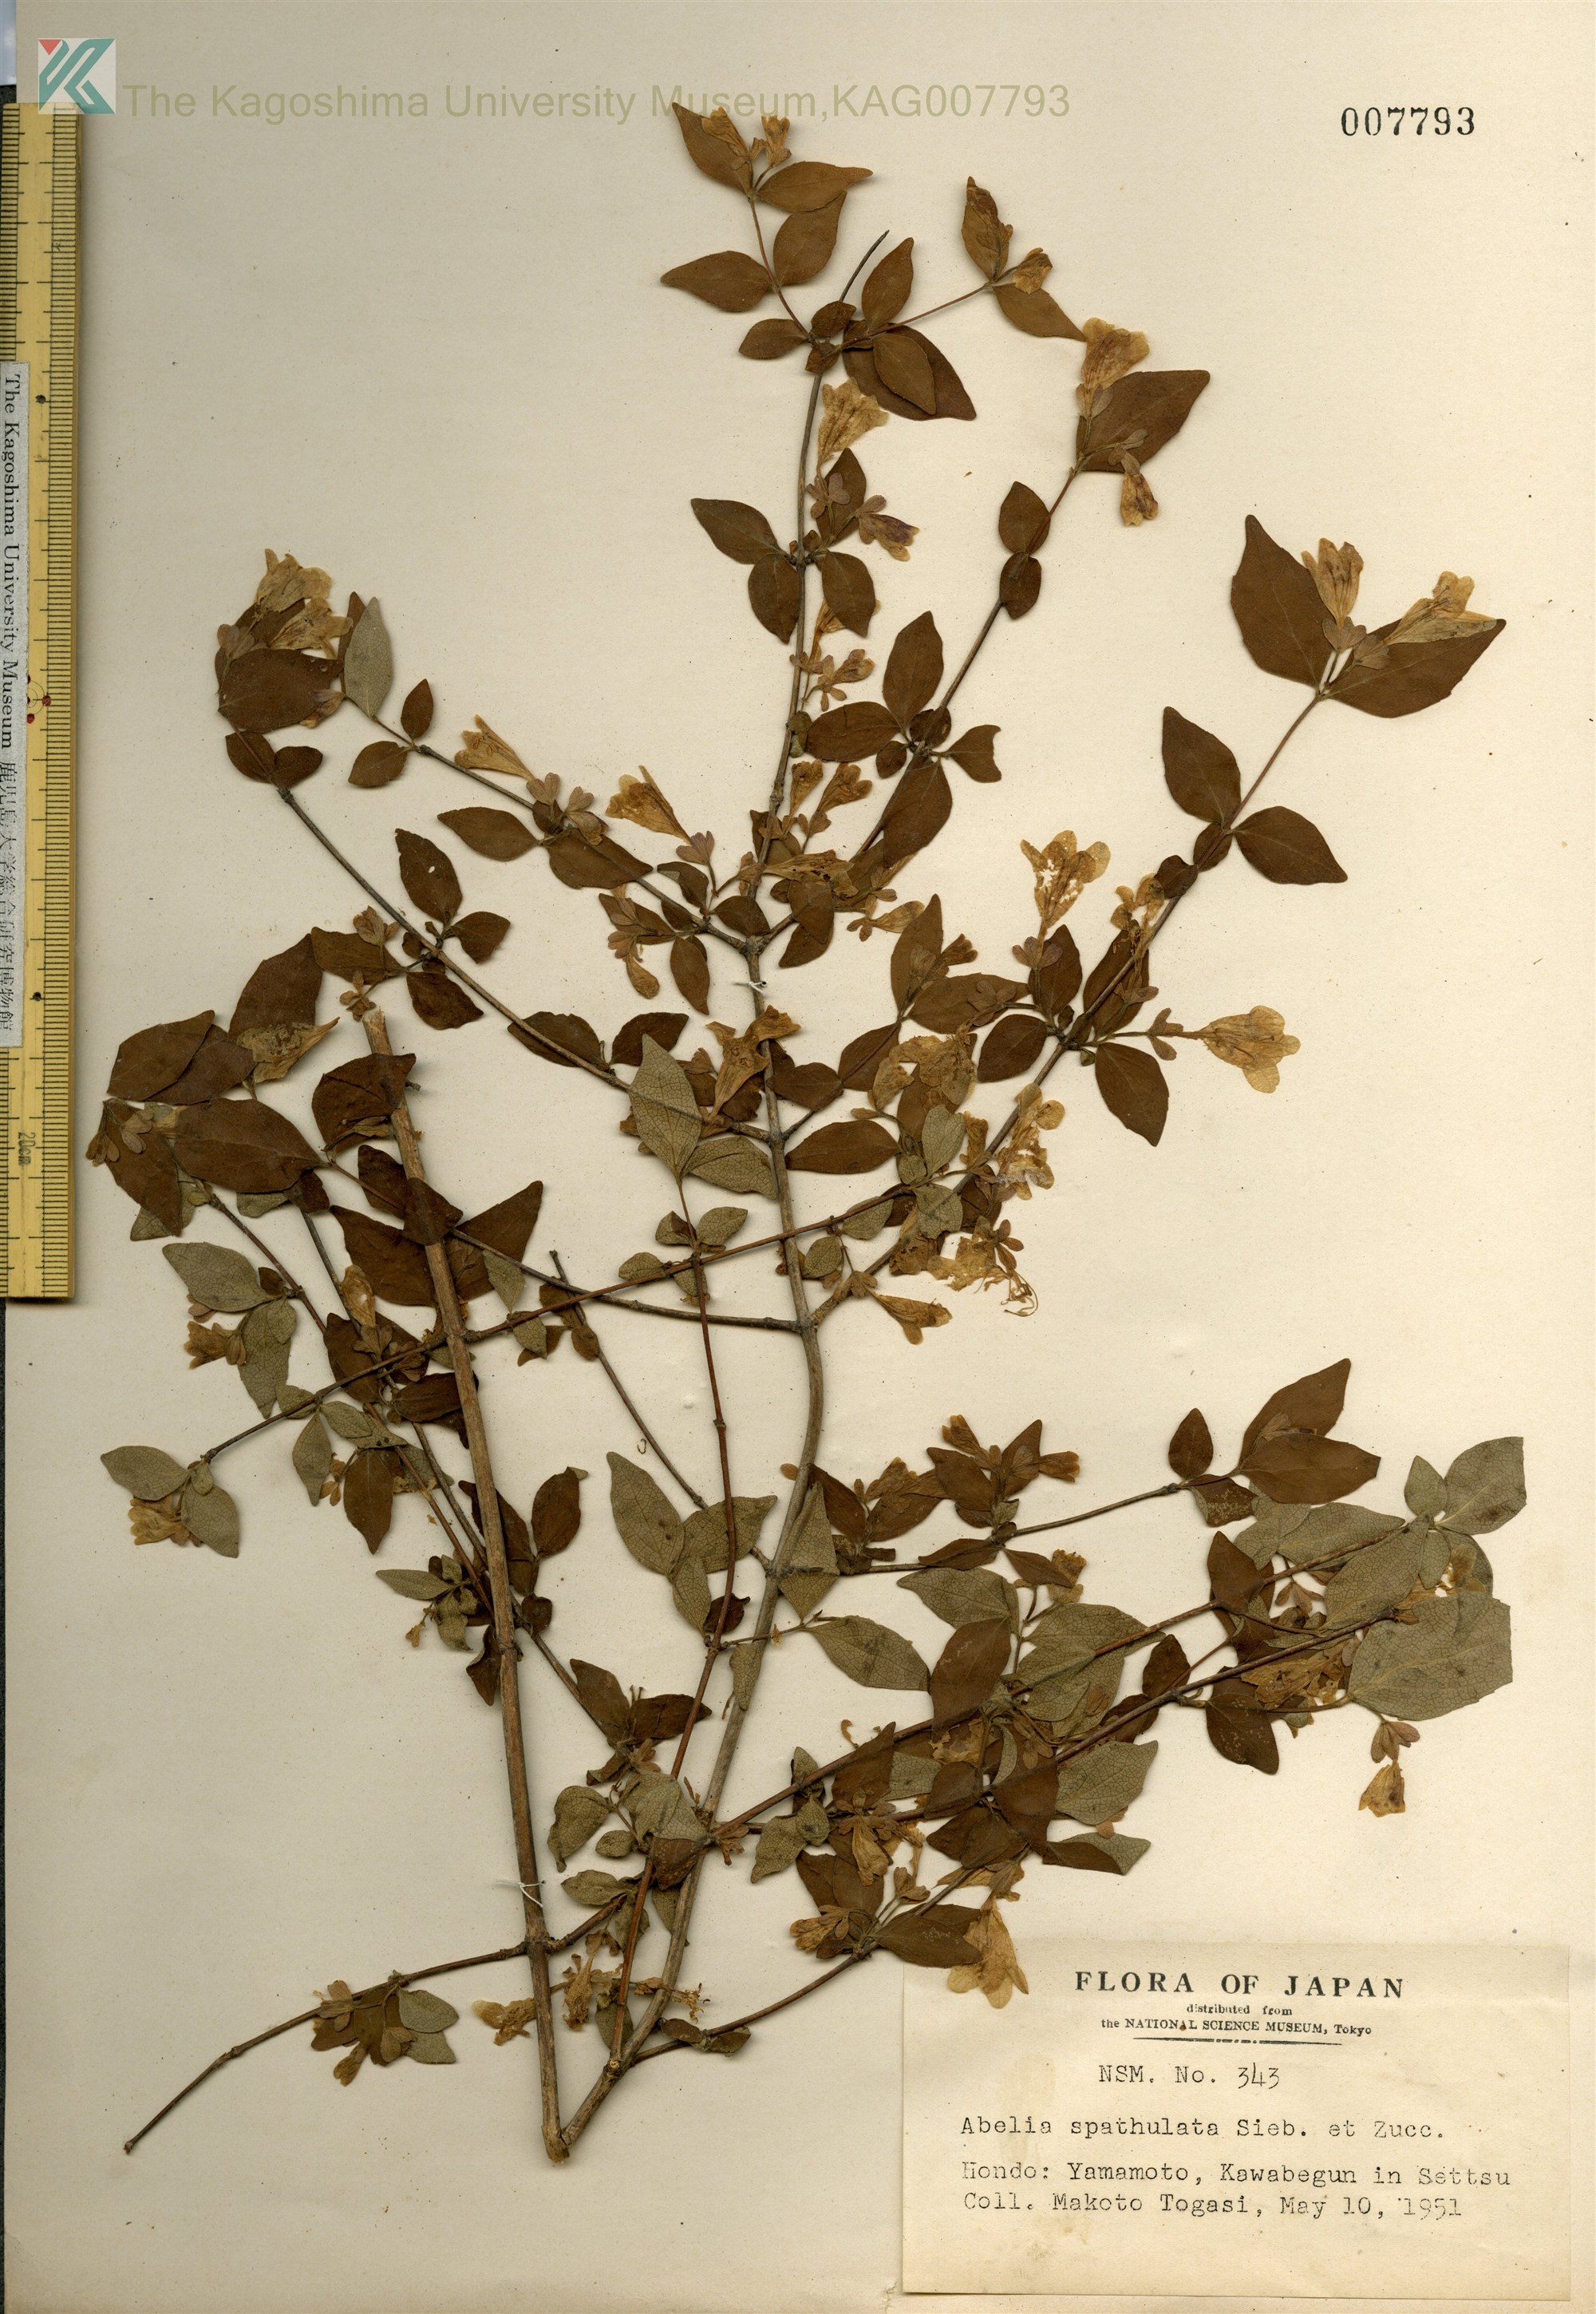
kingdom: Plantae
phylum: Tracheophyta
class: Magnoliopsida
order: Dipsacales
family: Caprifoliaceae
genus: Diabelia
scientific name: Diabelia spathulata
